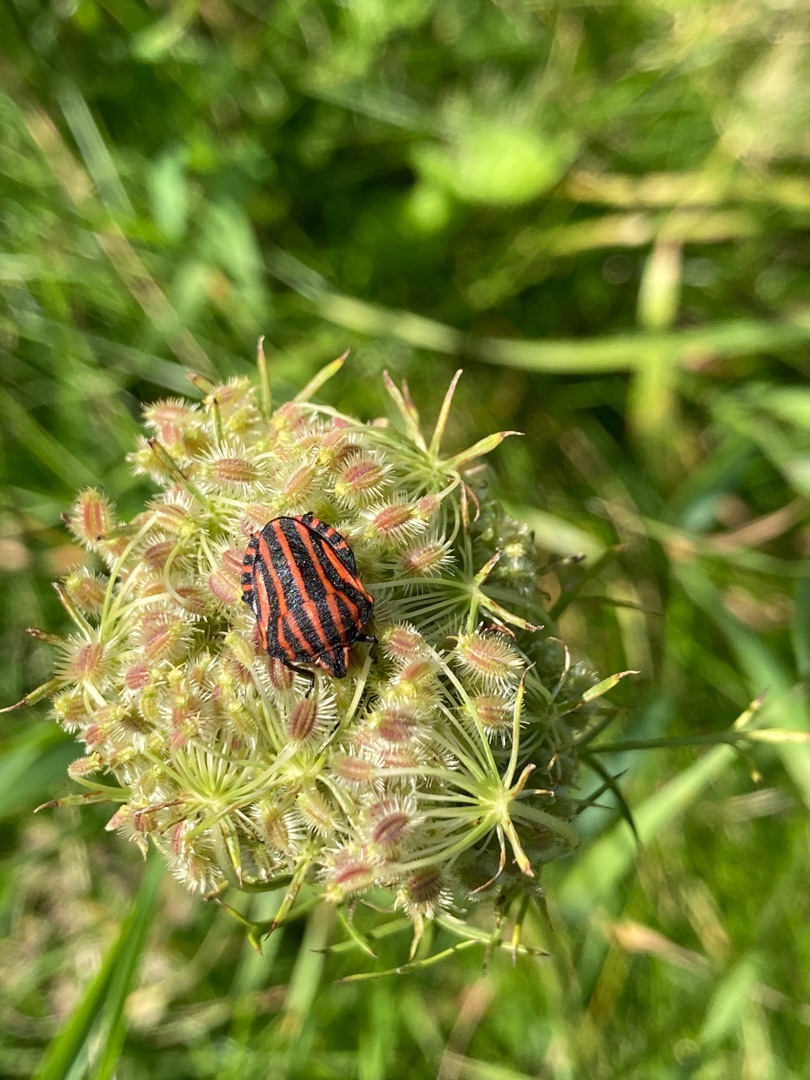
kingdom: Animalia
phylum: Arthropoda
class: Insecta
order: Hemiptera
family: Pentatomidae
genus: Graphosoma
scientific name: Graphosoma italicum
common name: Stribetæge
